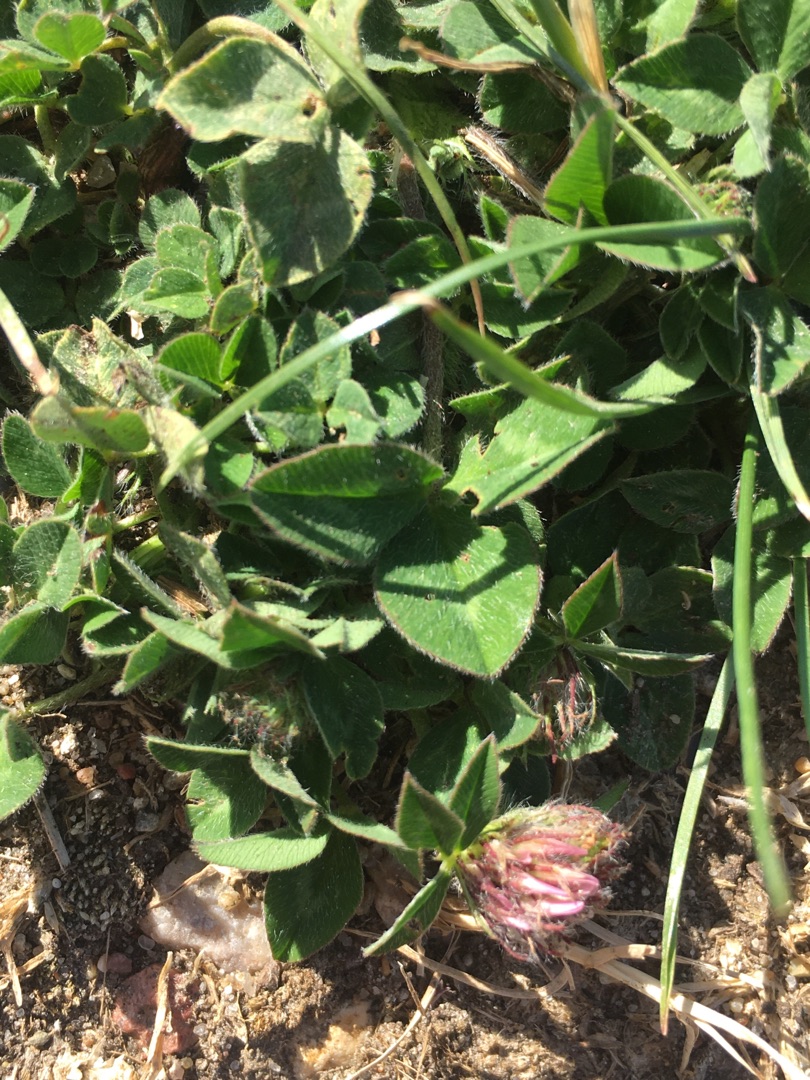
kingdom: Plantae
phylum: Tracheophyta
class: Magnoliopsida
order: Fabales
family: Fabaceae
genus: Trifolium
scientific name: Trifolium pratense
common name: Rød-kløver
